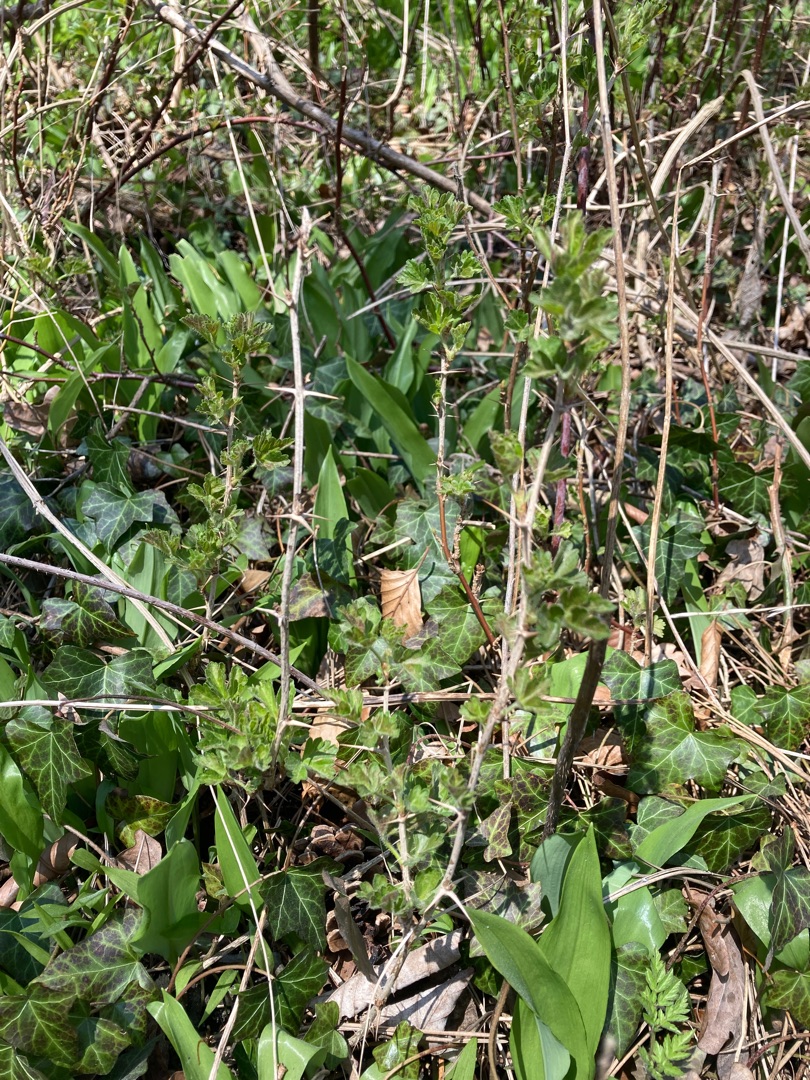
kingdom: Plantae
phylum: Tracheophyta
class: Magnoliopsida
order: Saxifragales
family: Grossulariaceae
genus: Ribes
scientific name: Ribes uva-crispa
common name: Stikkelsbær
